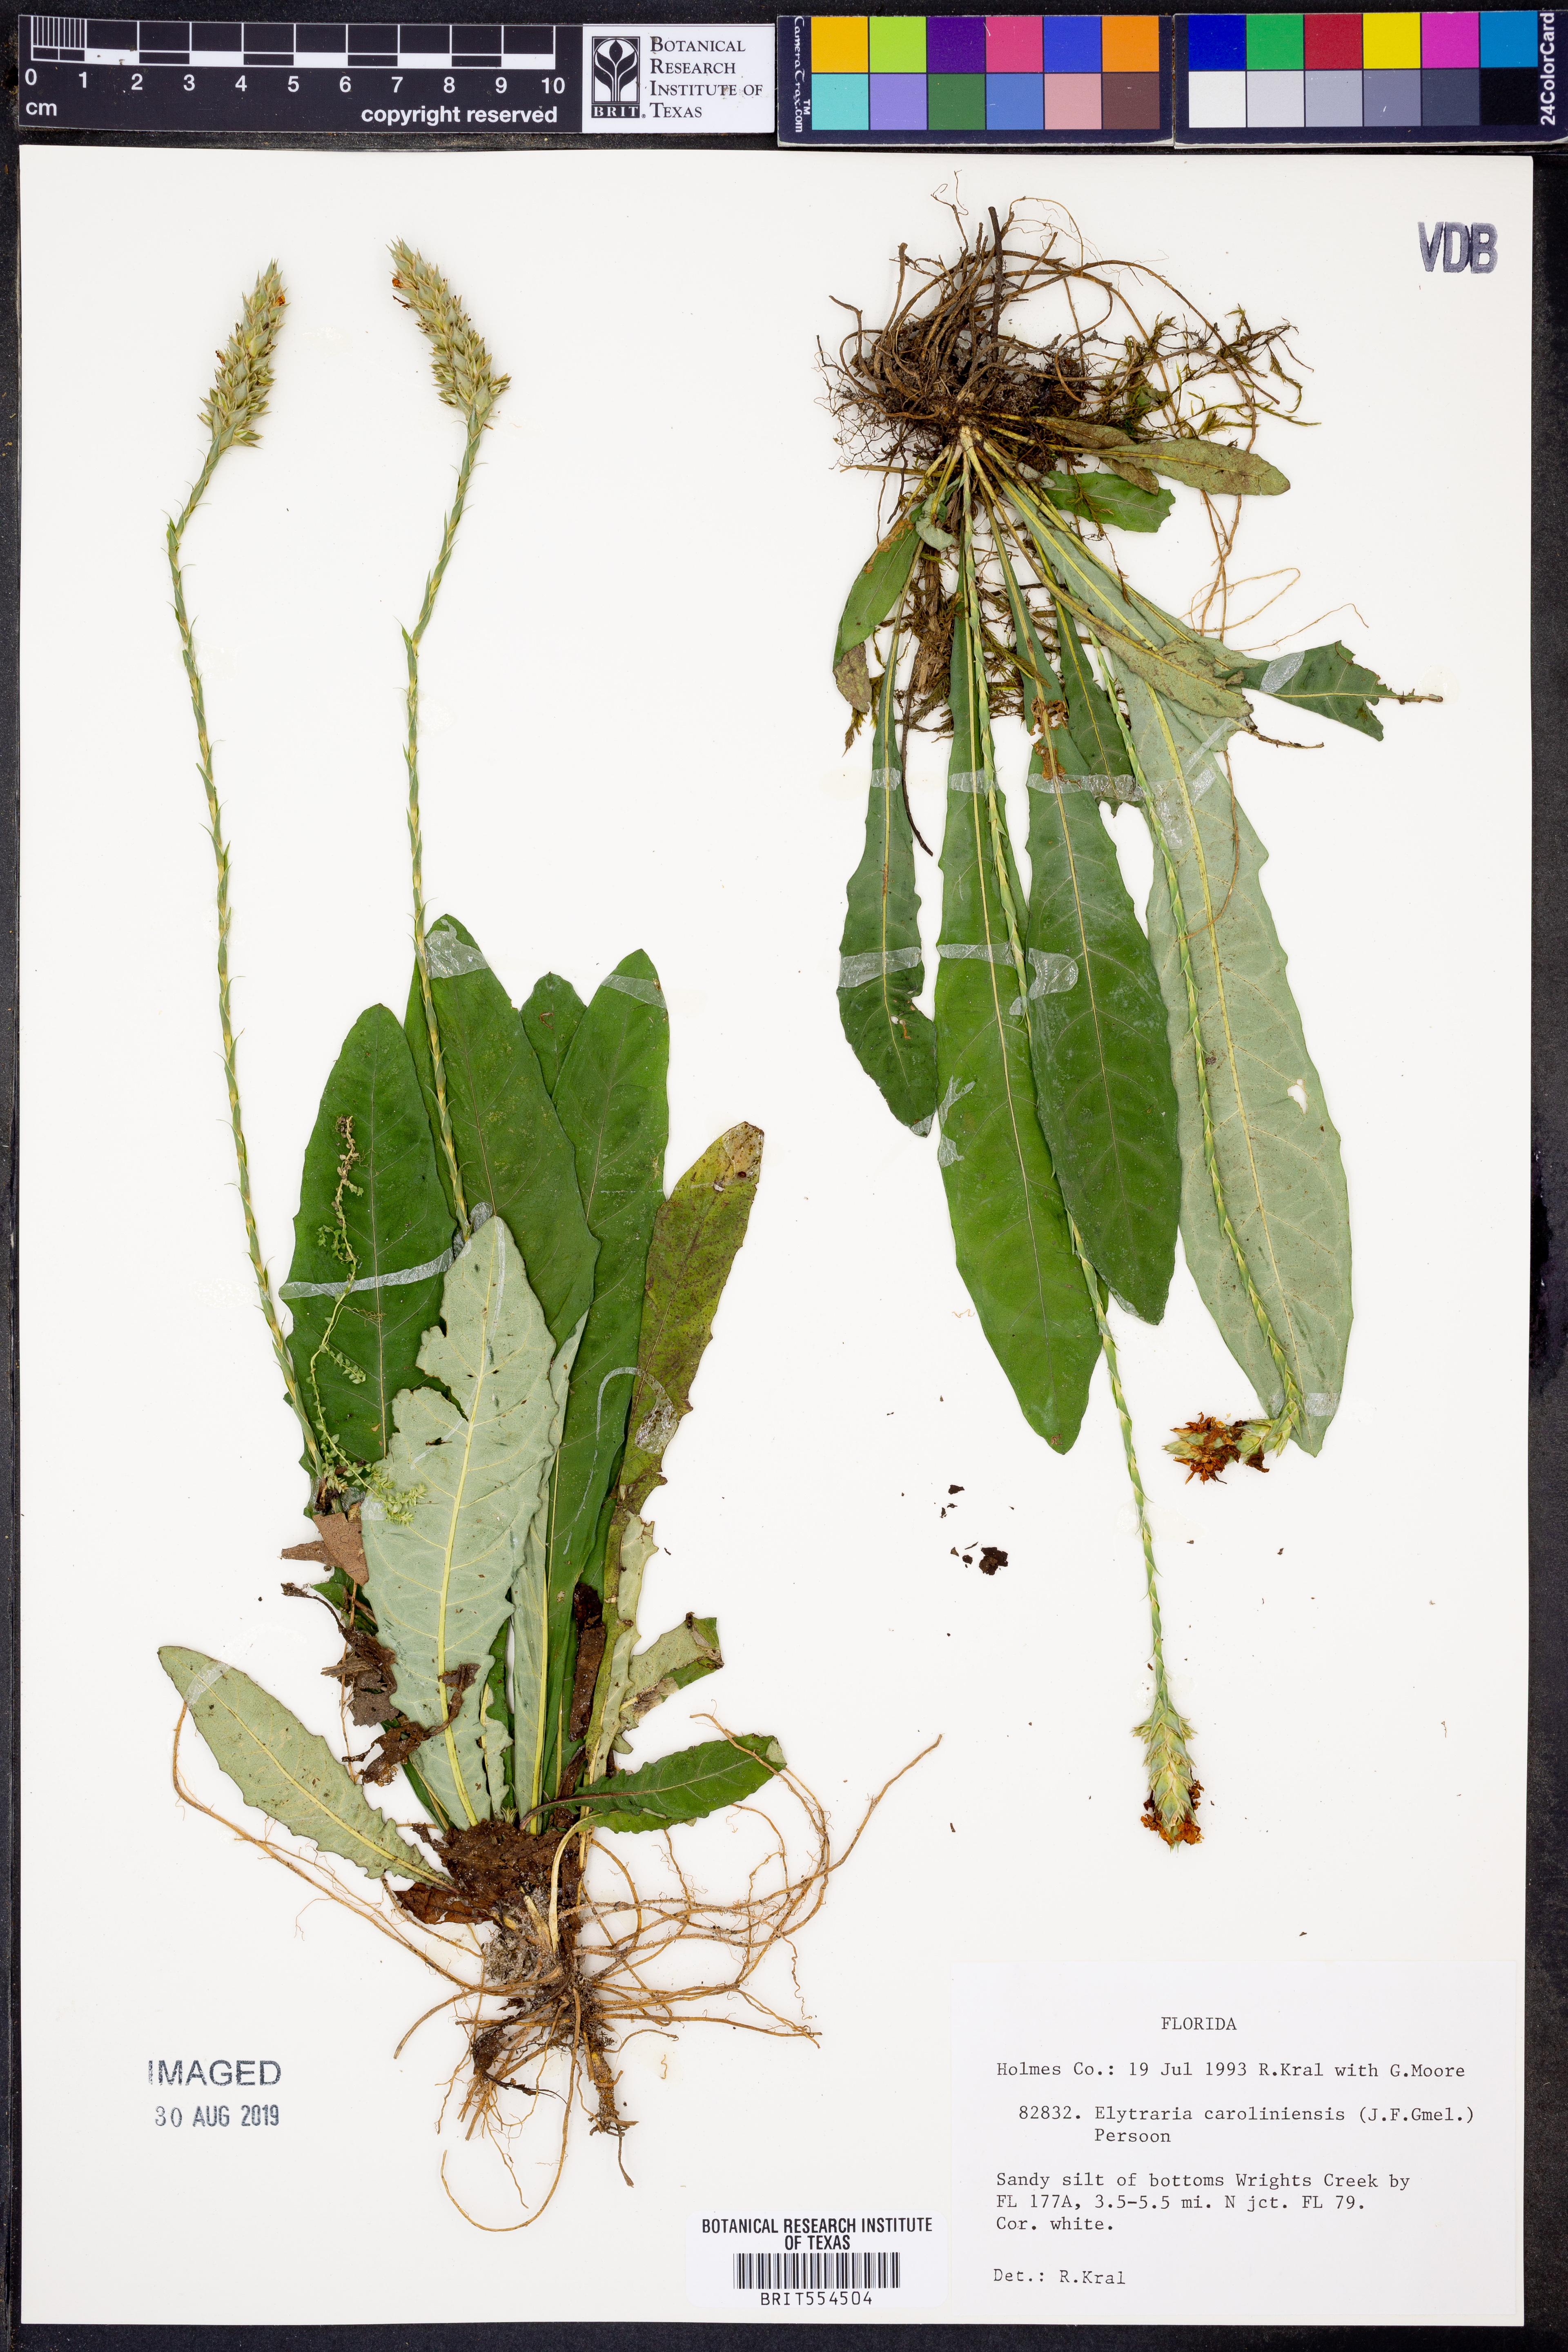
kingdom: Plantae
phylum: Tracheophyta
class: Magnoliopsida
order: Lamiales
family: Acanthaceae
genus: Elytraria
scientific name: Elytraria caroliniensis
